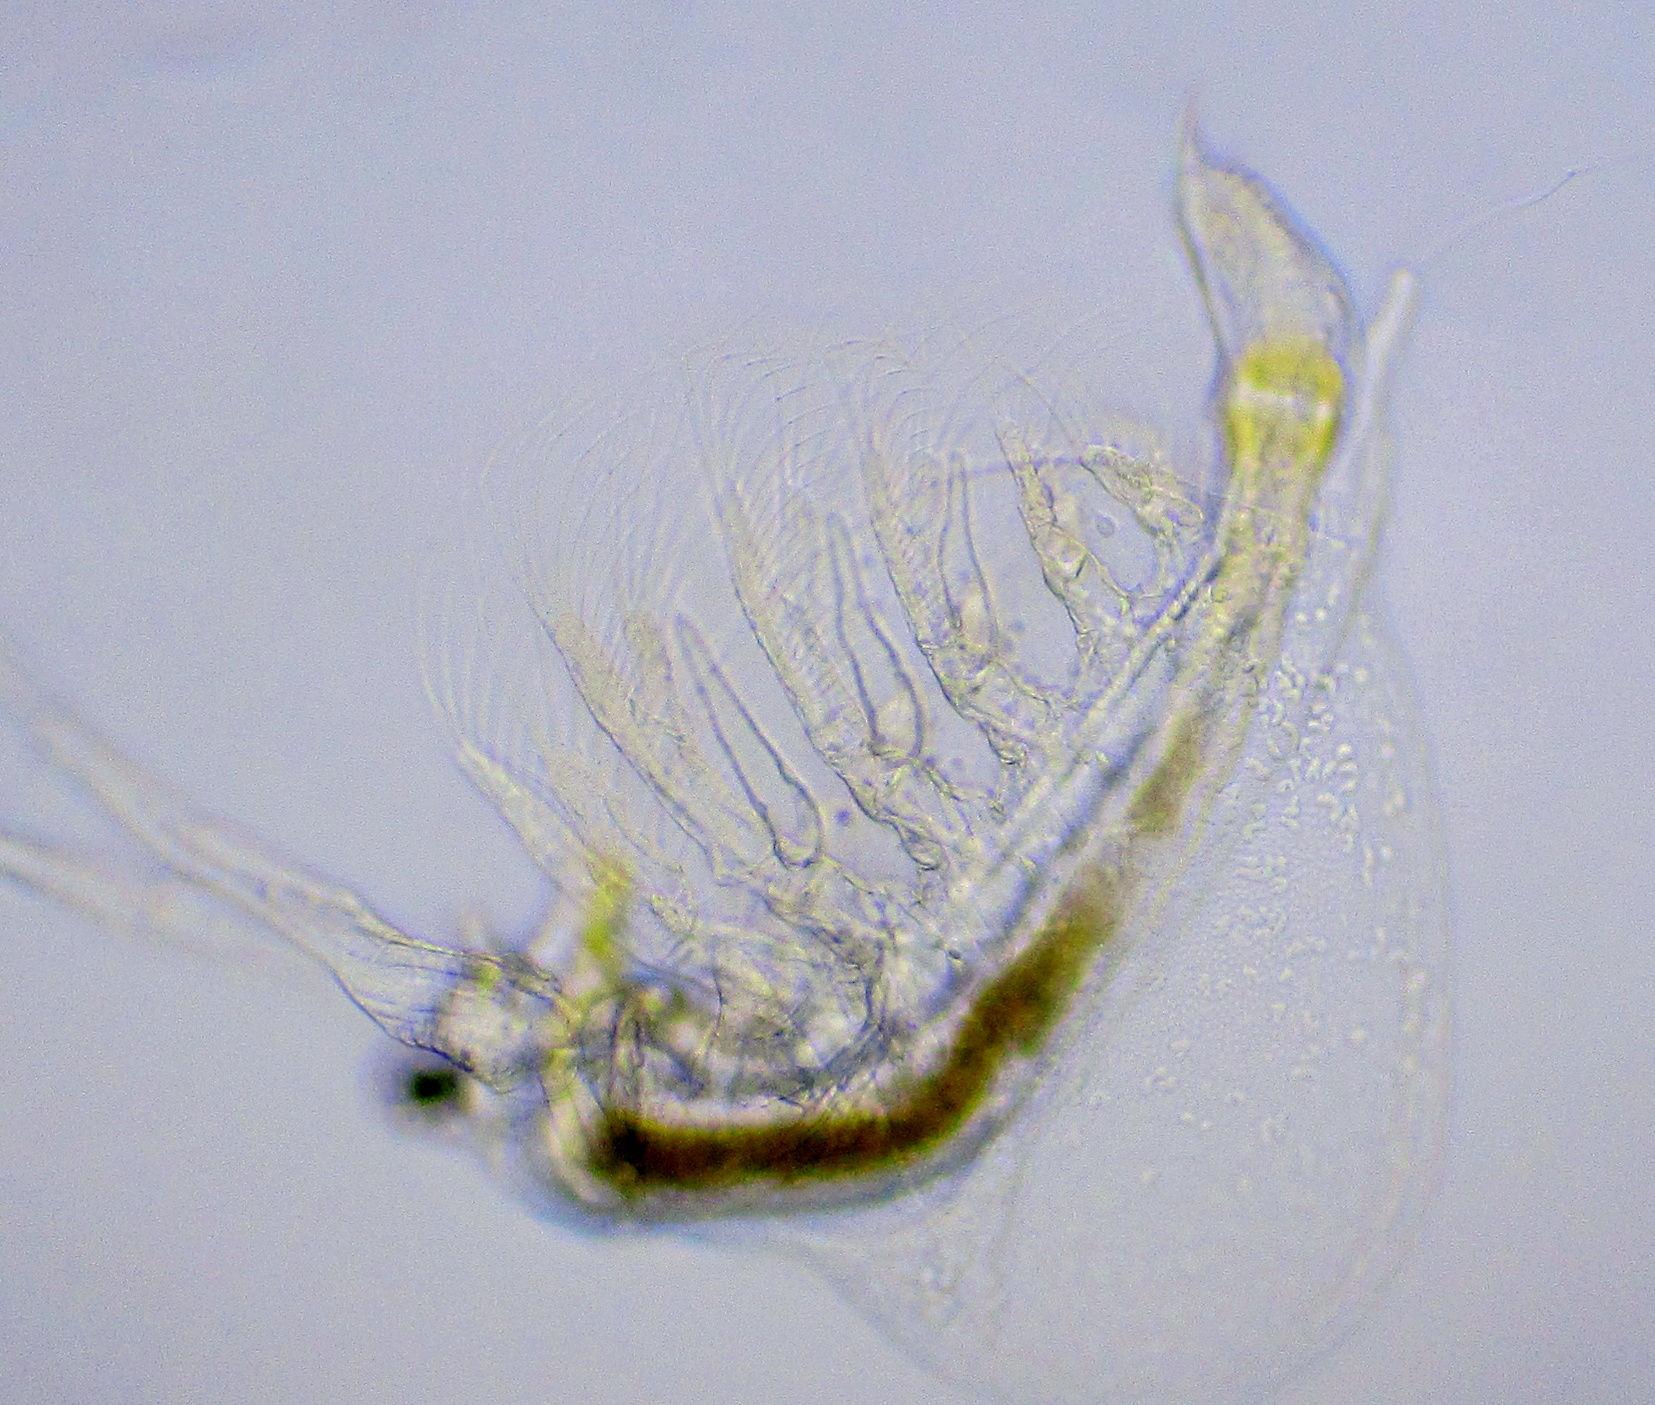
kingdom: Animalia
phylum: Arthropoda
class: Branchiopoda
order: Diplostraca
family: Holopediidae
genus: Holopedium
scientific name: Holopedium gibberum
